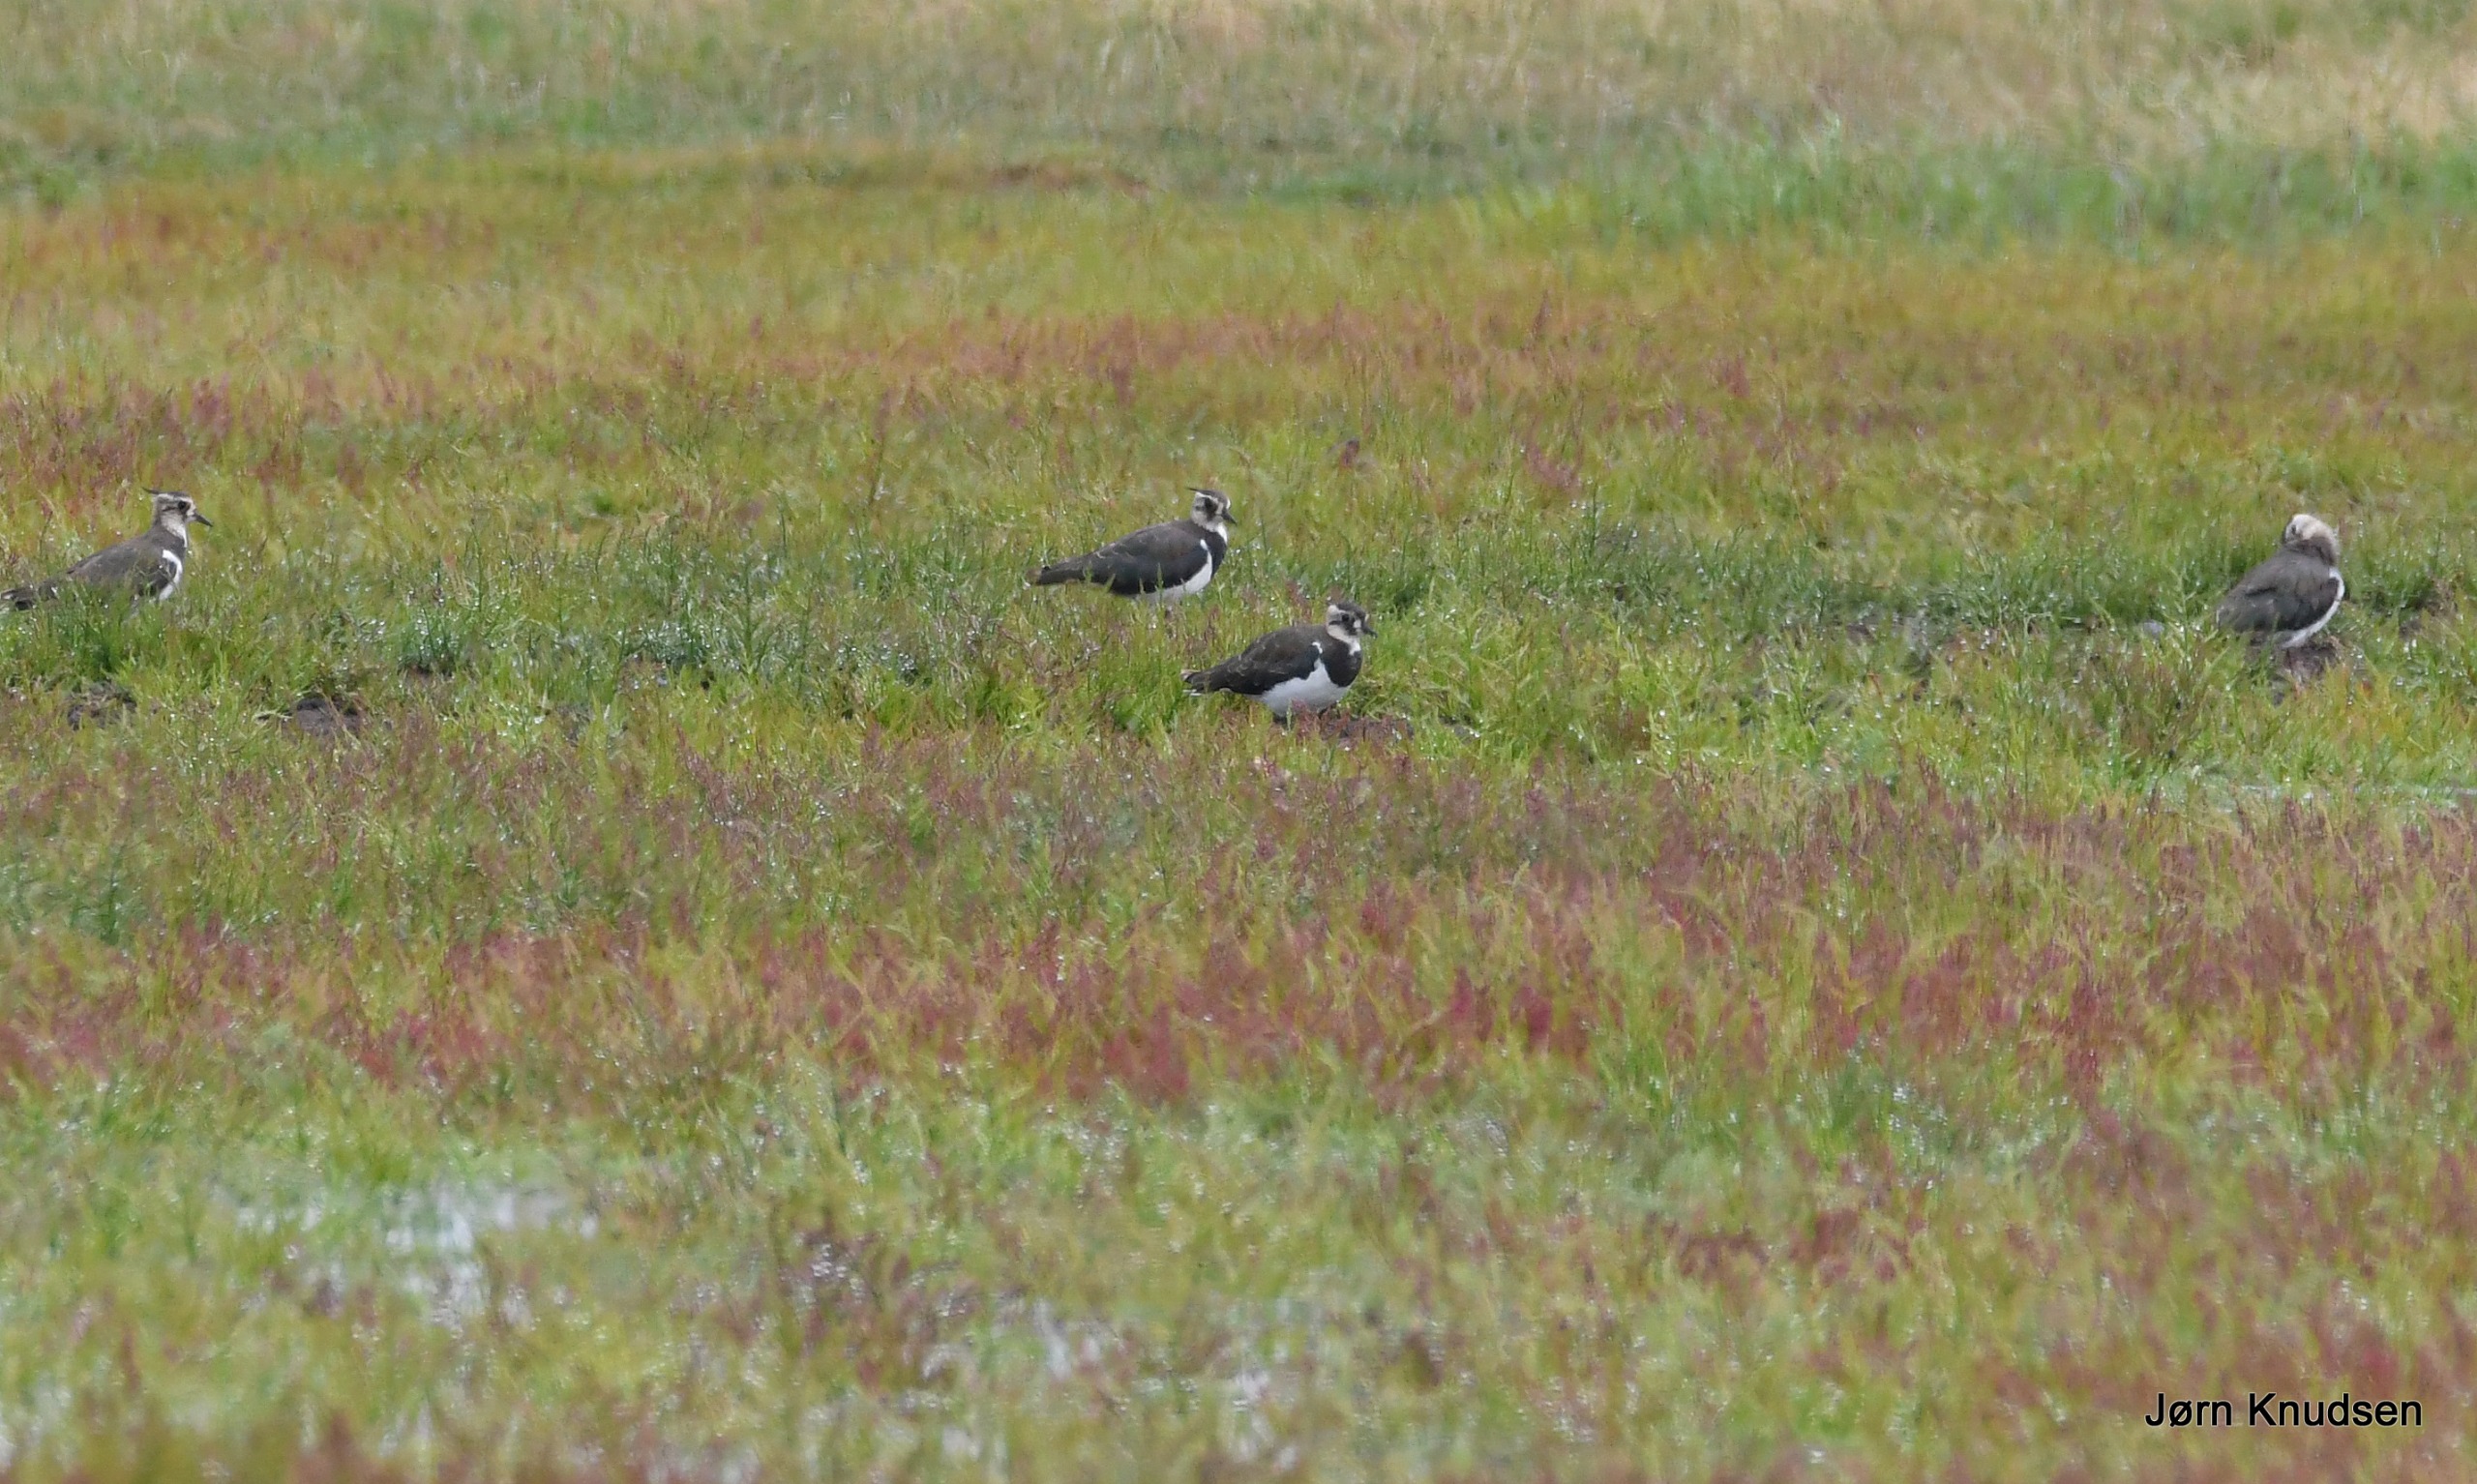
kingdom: Animalia
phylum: Chordata
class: Aves
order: Charadriiformes
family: Charadriidae
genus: Vanellus
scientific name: Vanellus vanellus
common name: Vibe
